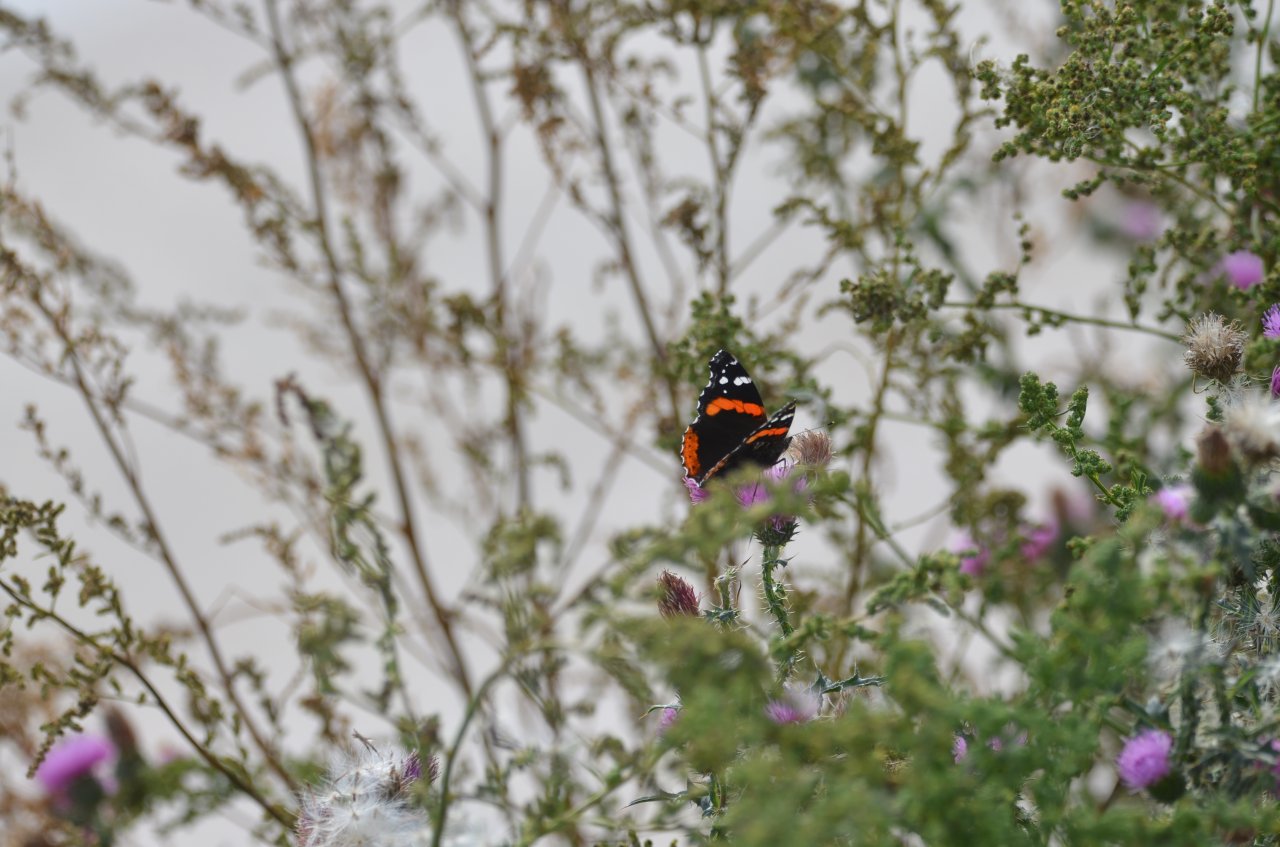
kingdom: Animalia
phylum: Arthropoda
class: Insecta
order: Lepidoptera
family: Nymphalidae
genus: Vanessa
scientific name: Vanessa atalanta
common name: Red Admiral
